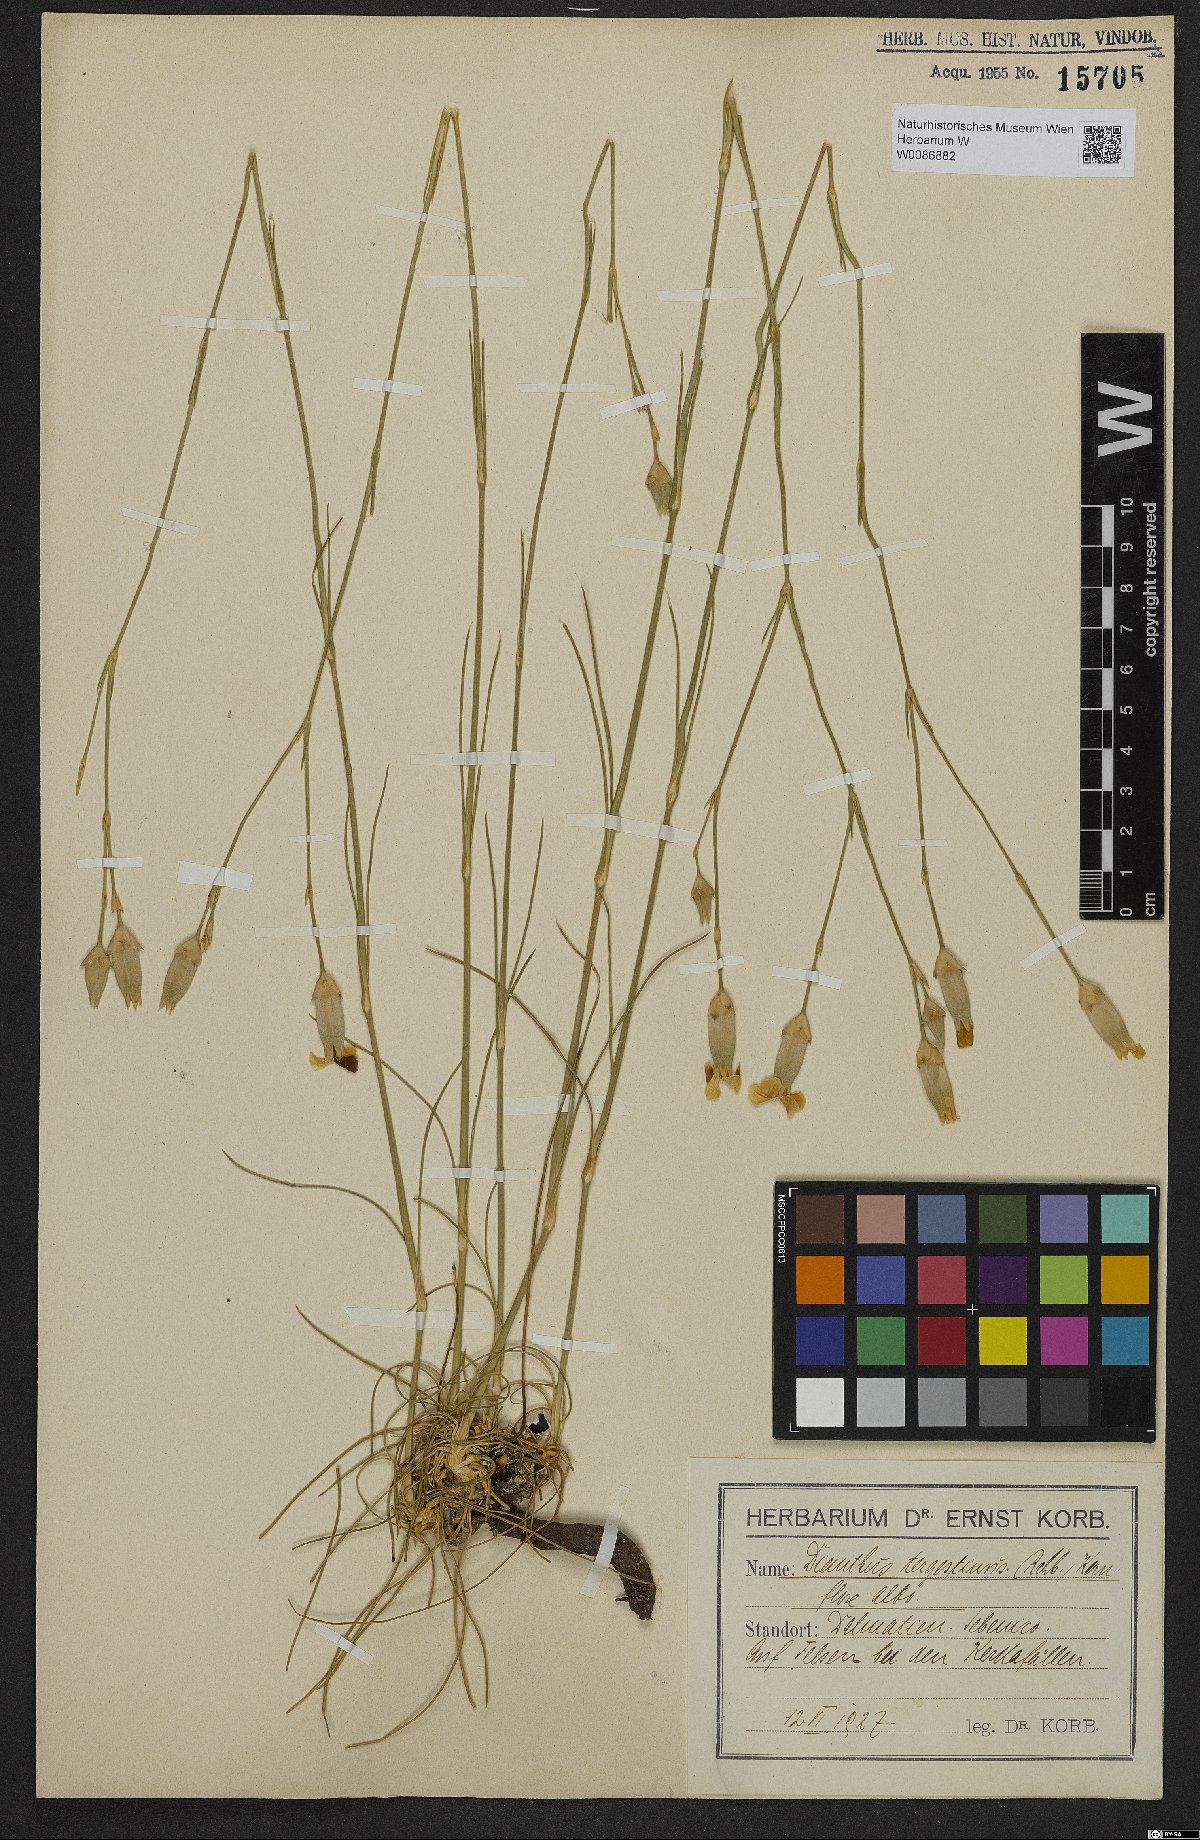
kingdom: Plantae
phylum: Tracheophyta
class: Magnoliopsida
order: Caryophyllales
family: Caryophyllaceae
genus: Dianthus
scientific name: Dianthus sylvestris
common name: Wood pink
